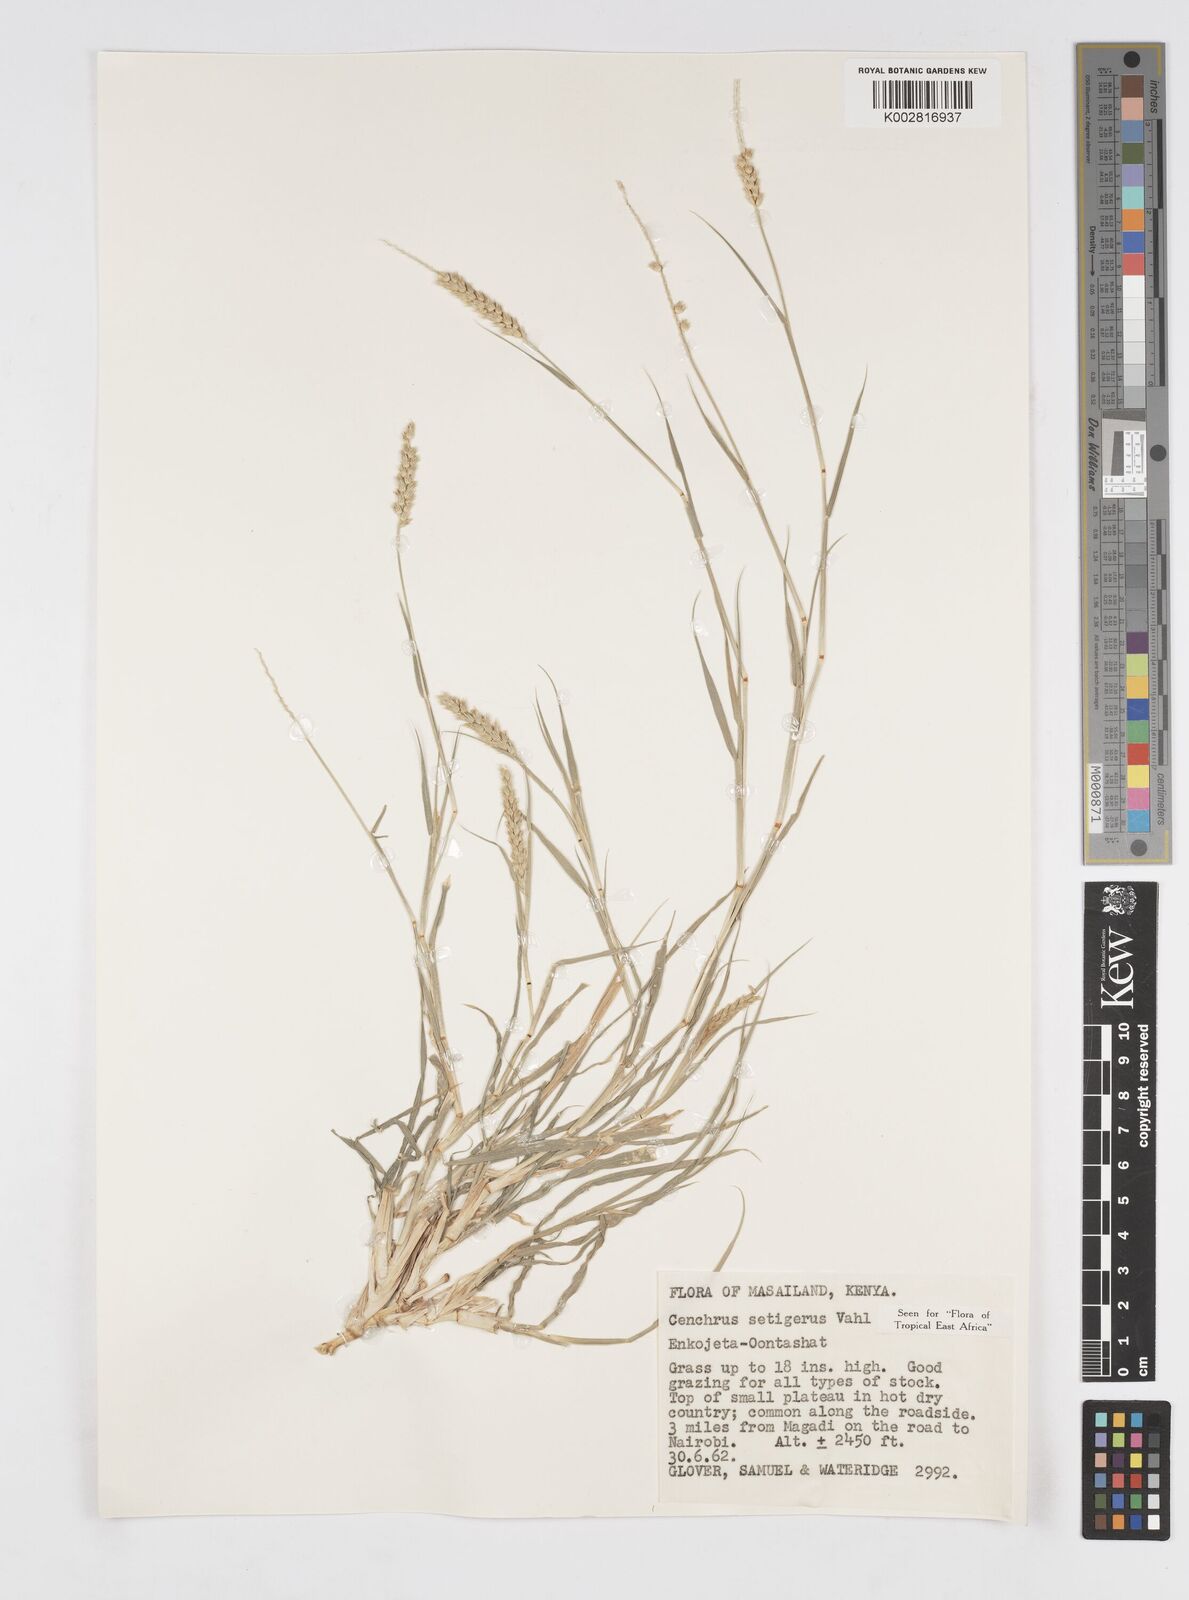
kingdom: Plantae
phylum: Tracheophyta
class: Liliopsida
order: Poales
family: Poaceae
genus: Cenchrus
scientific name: Cenchrus setigerus
